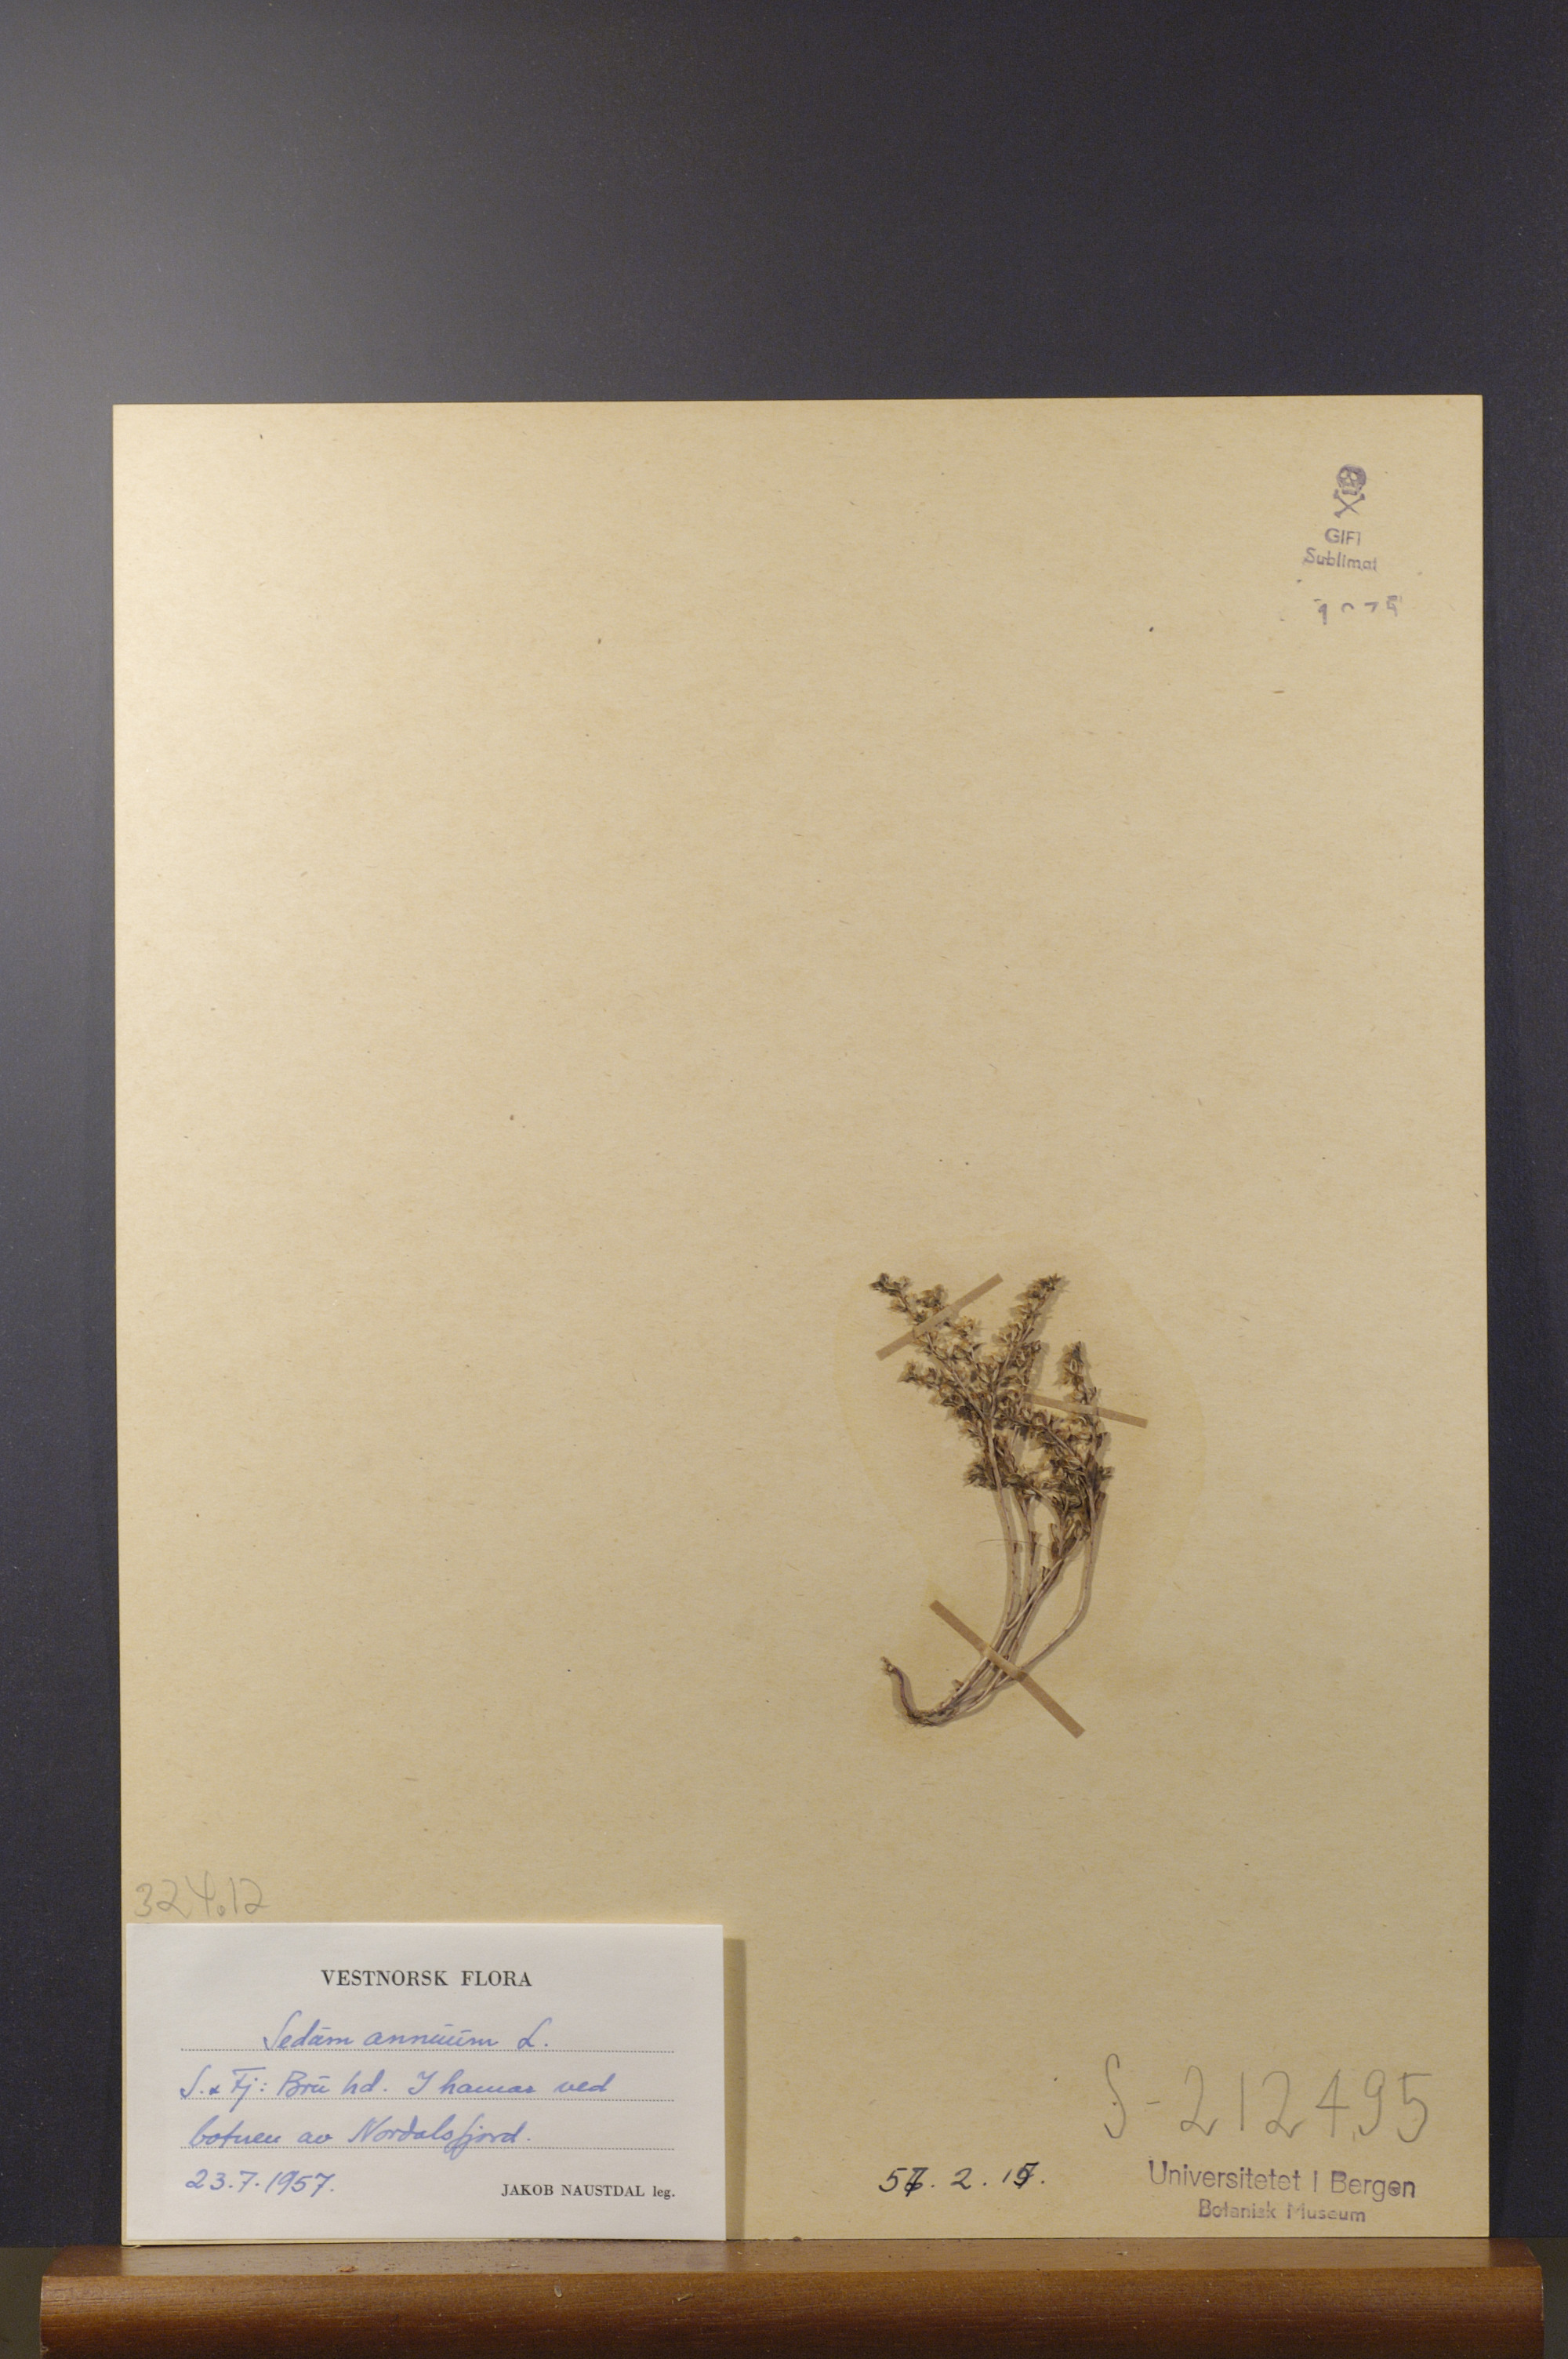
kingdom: Plantae
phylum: Tracheophyta
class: Magnoliopsida
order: Saxifragales
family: Crassulaceae
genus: Sedum
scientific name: Sedum annuum
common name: Annual stonecrop
